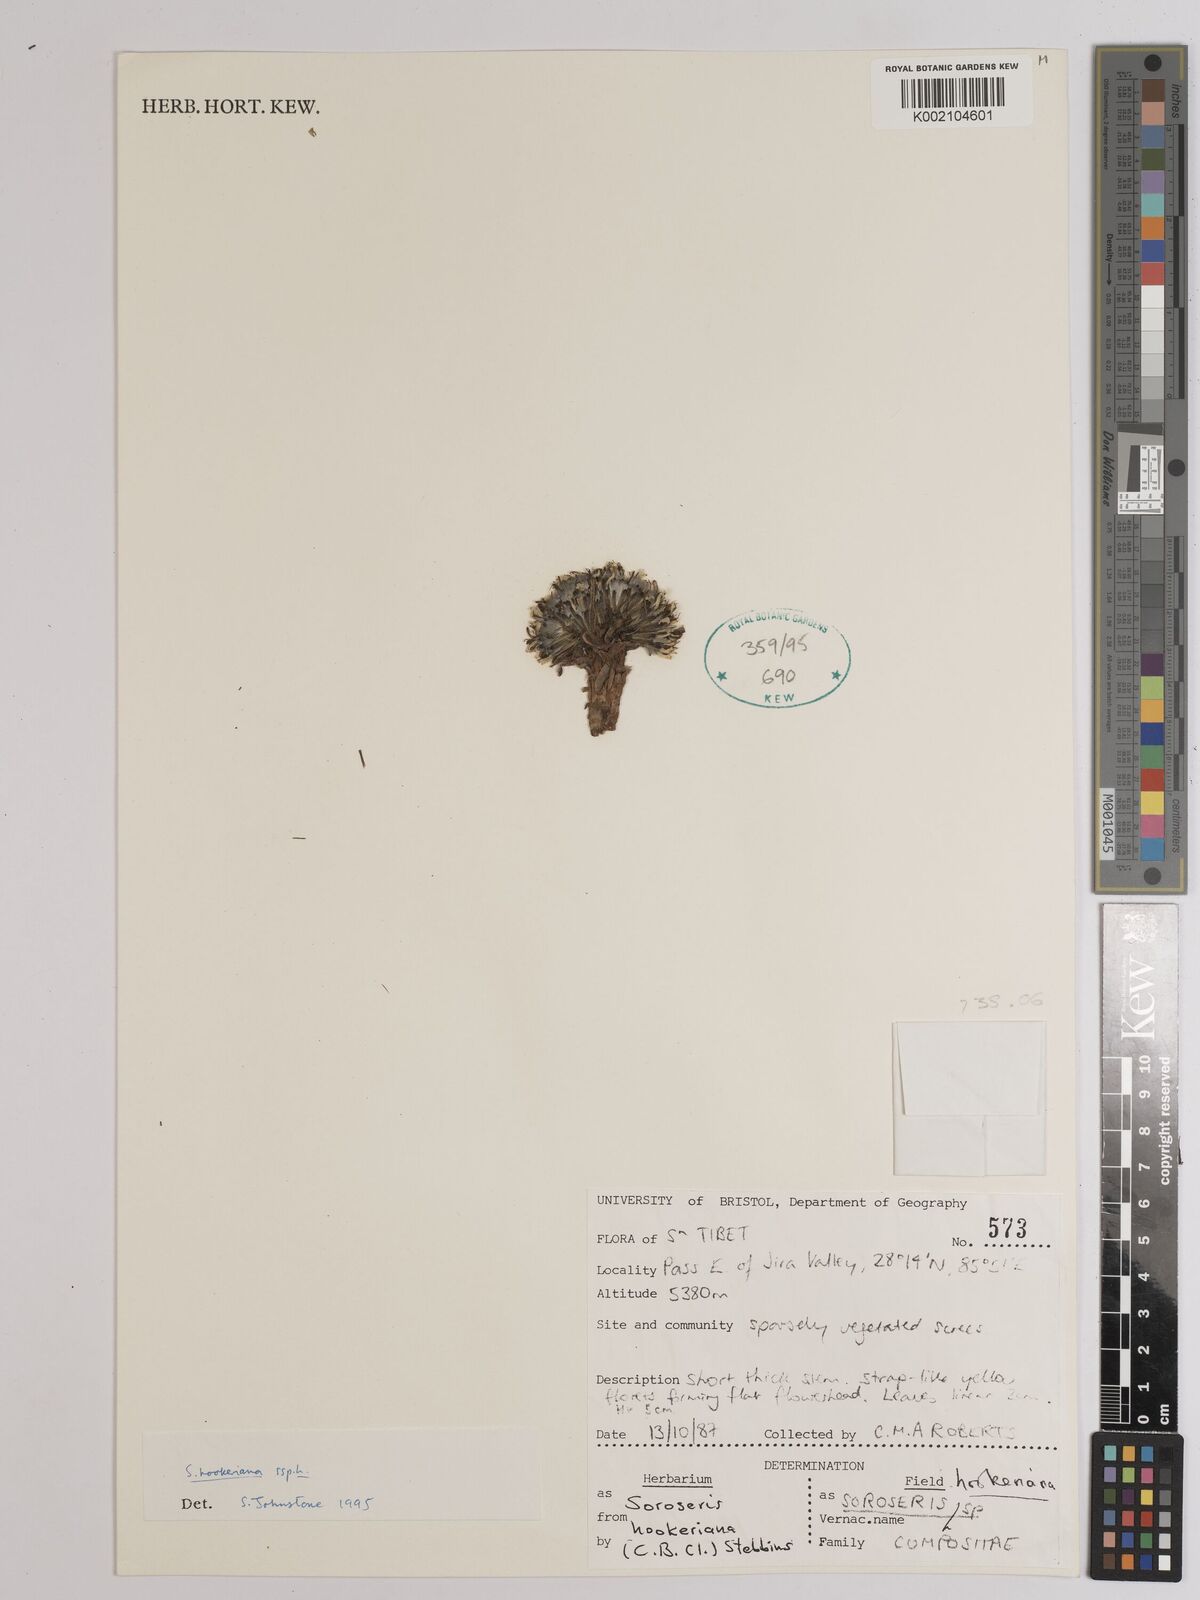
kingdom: Plantae
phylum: Tracheophyta
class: Magnoliopsida
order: Asterales
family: Asteraceae
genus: Soroseris
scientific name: Soroseris hookeriana
